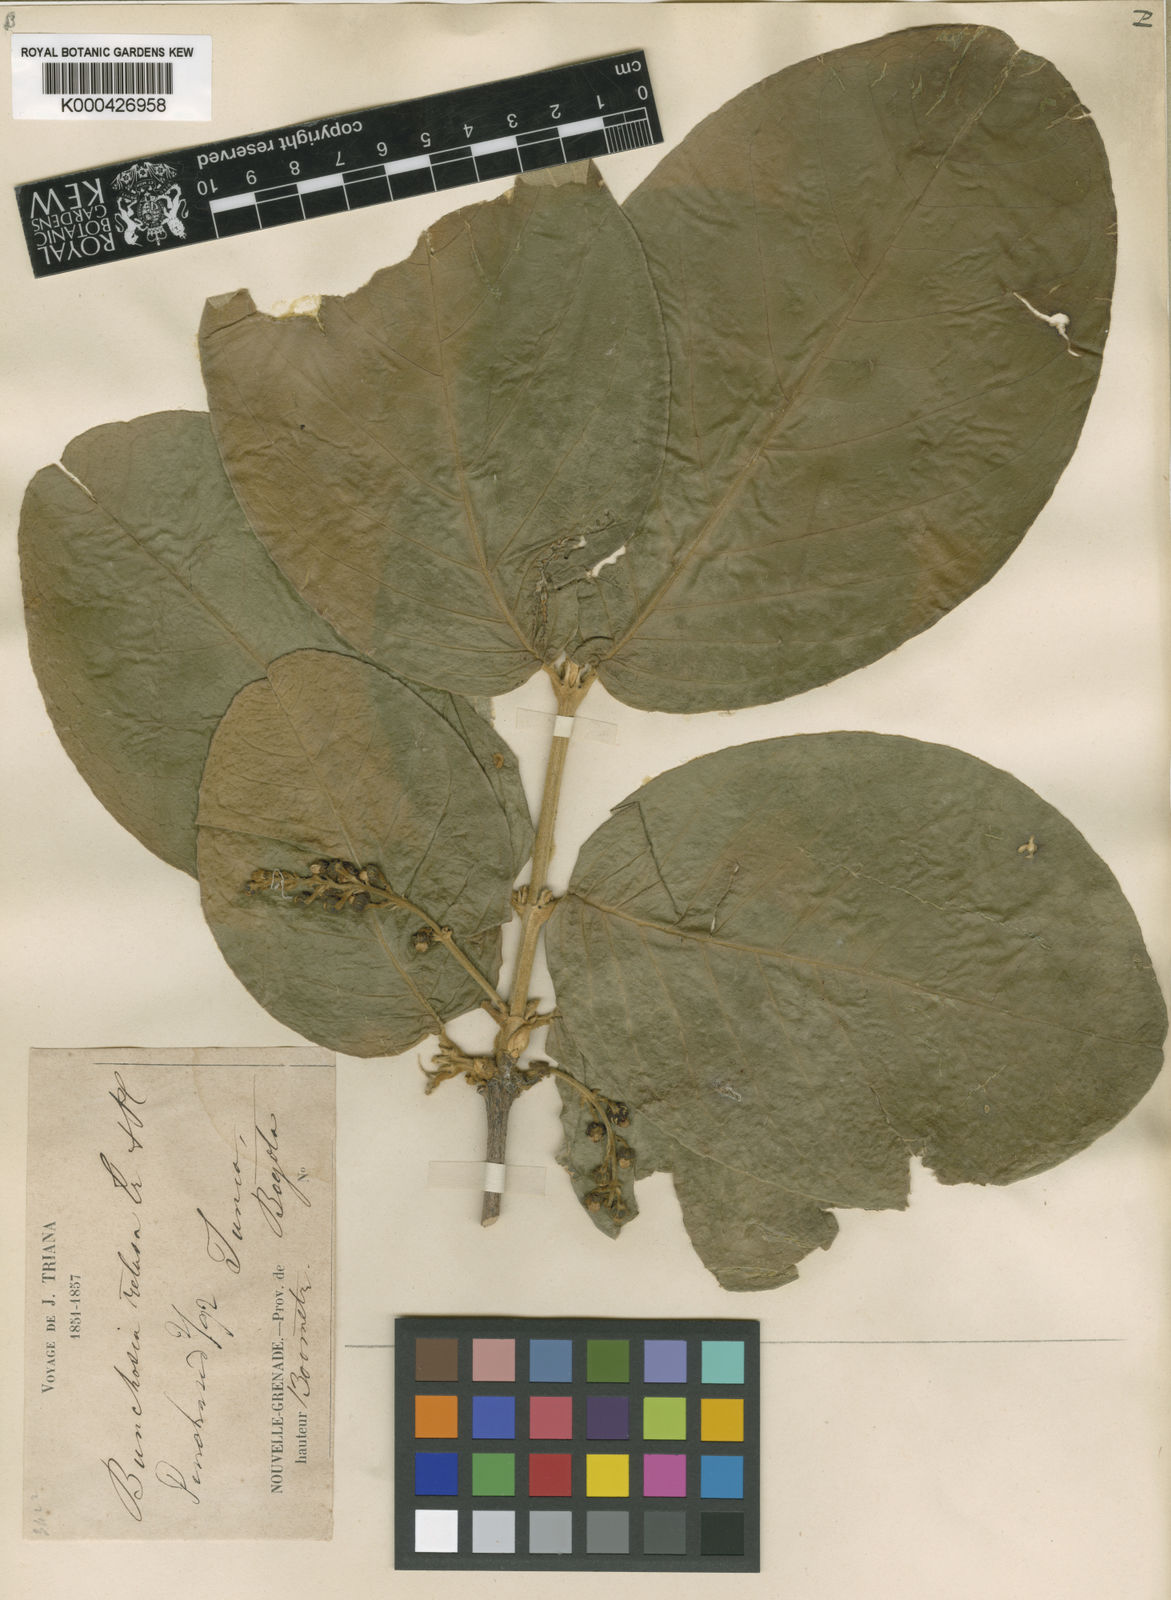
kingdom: Plantae
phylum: Tracheophyta
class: Magnoliopsida
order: Malpighiales
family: Malpighiaceae
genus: Bunchosia
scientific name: Bunchosia retusa
